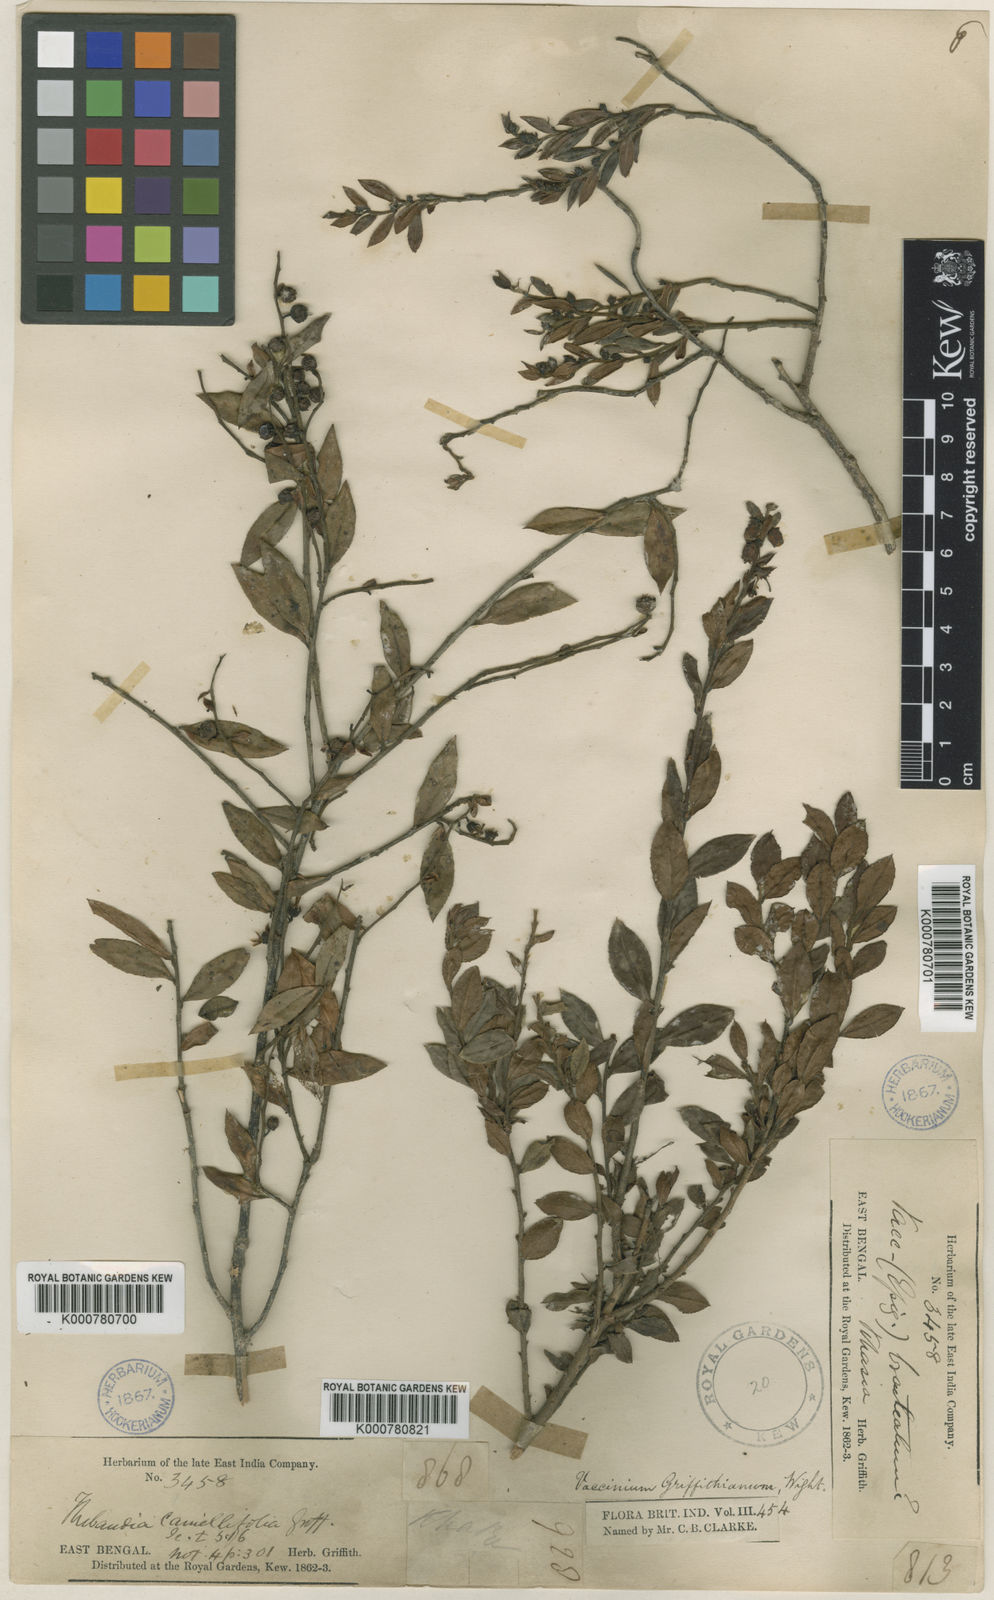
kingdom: Plantae
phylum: Tracheophyta
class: Magnoliopsida
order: Ericales
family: Ericaceae
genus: Vaccinium
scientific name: Vaccinium griffithianum
